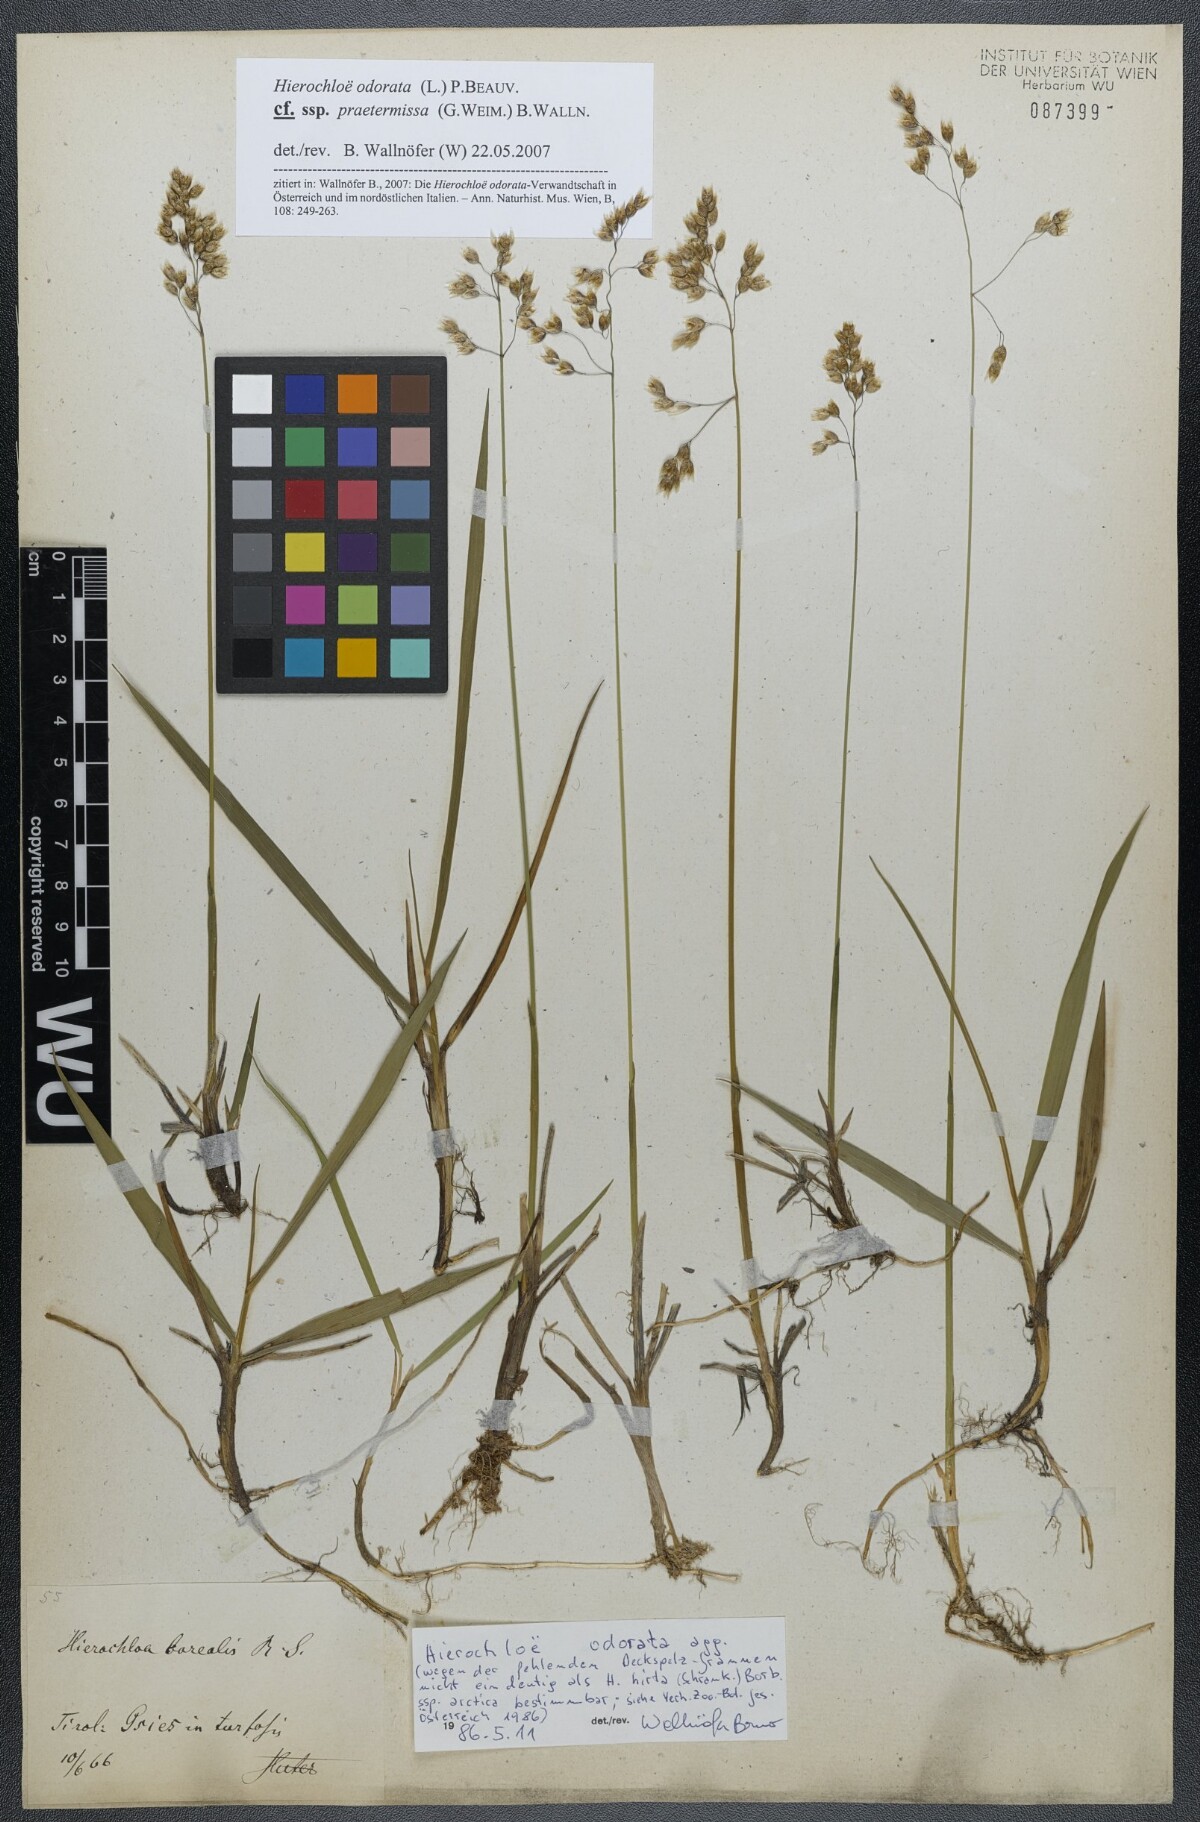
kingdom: Plantae
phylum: Tracheophyta
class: Liliopsida
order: Poales
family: Poaceae
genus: Anthoxanthum
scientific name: Anthoxanthum nitens
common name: Holy grass
